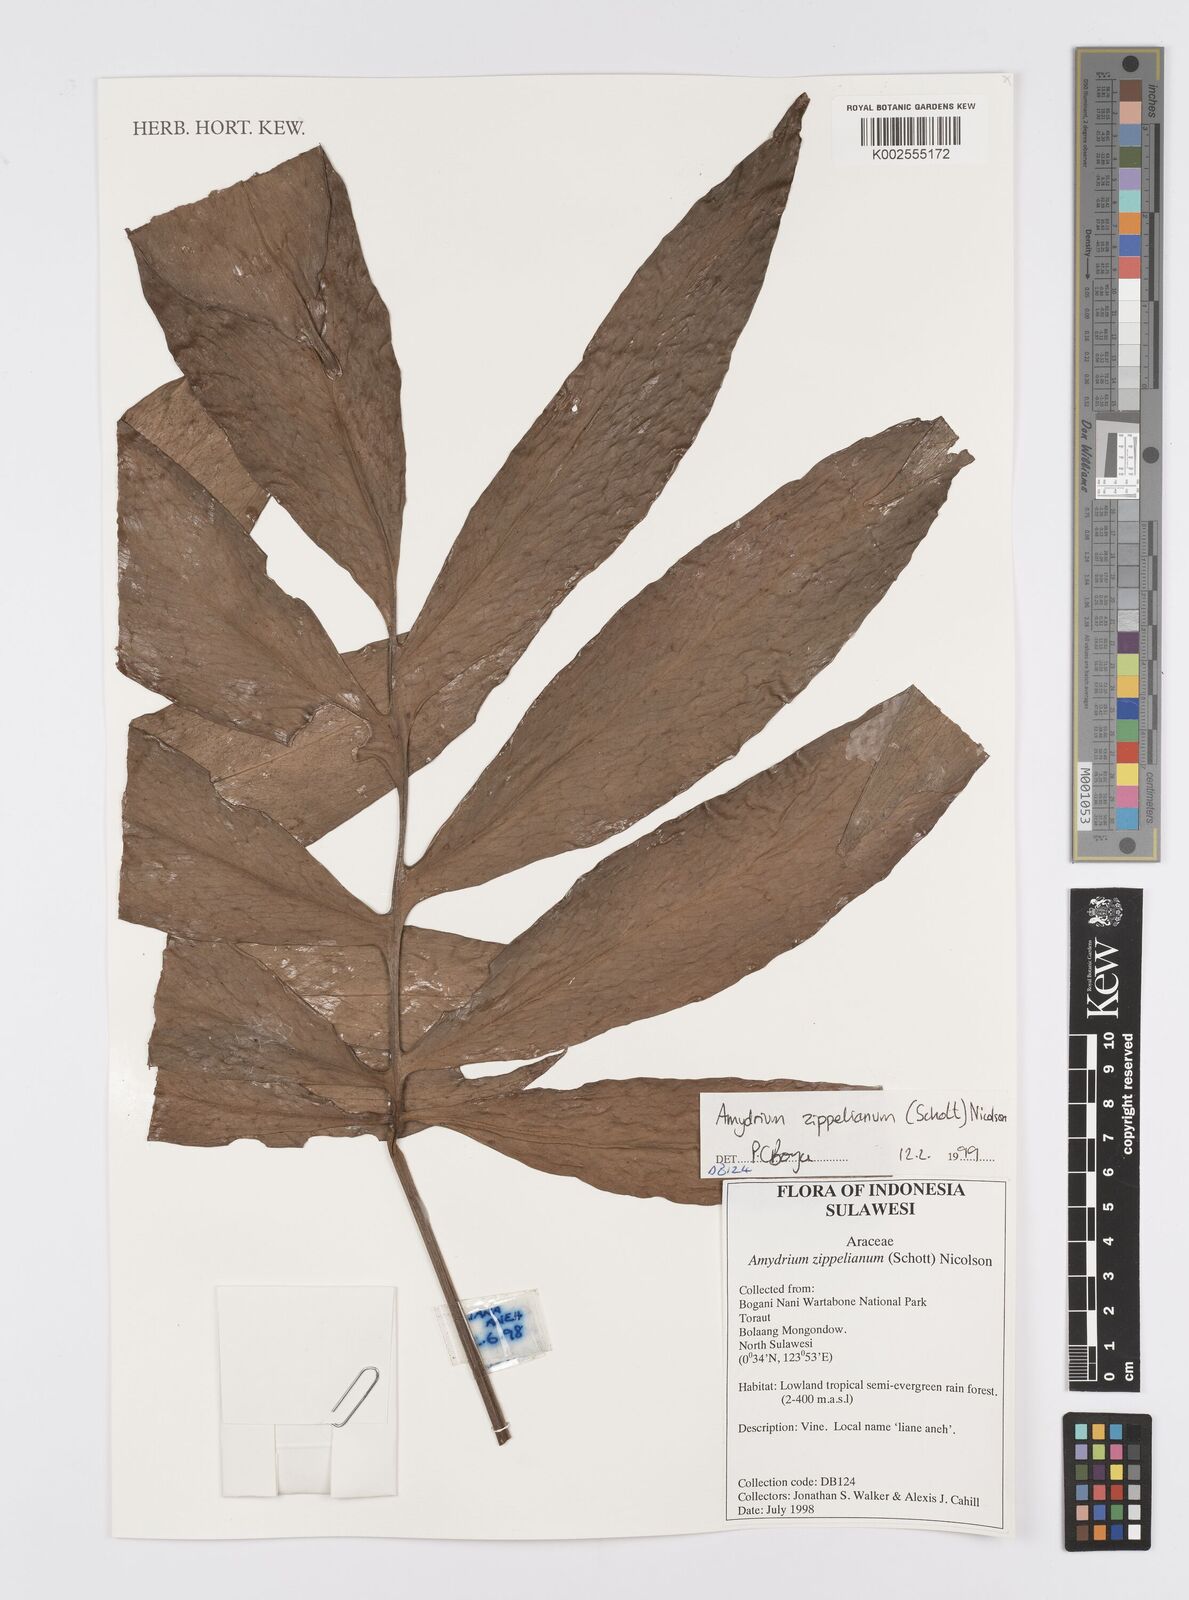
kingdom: Plantae
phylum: Tracheophyta
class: Liliopsida
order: Alismatales
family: Araceae
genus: Amydrium
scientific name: Amydrium zippelianum
